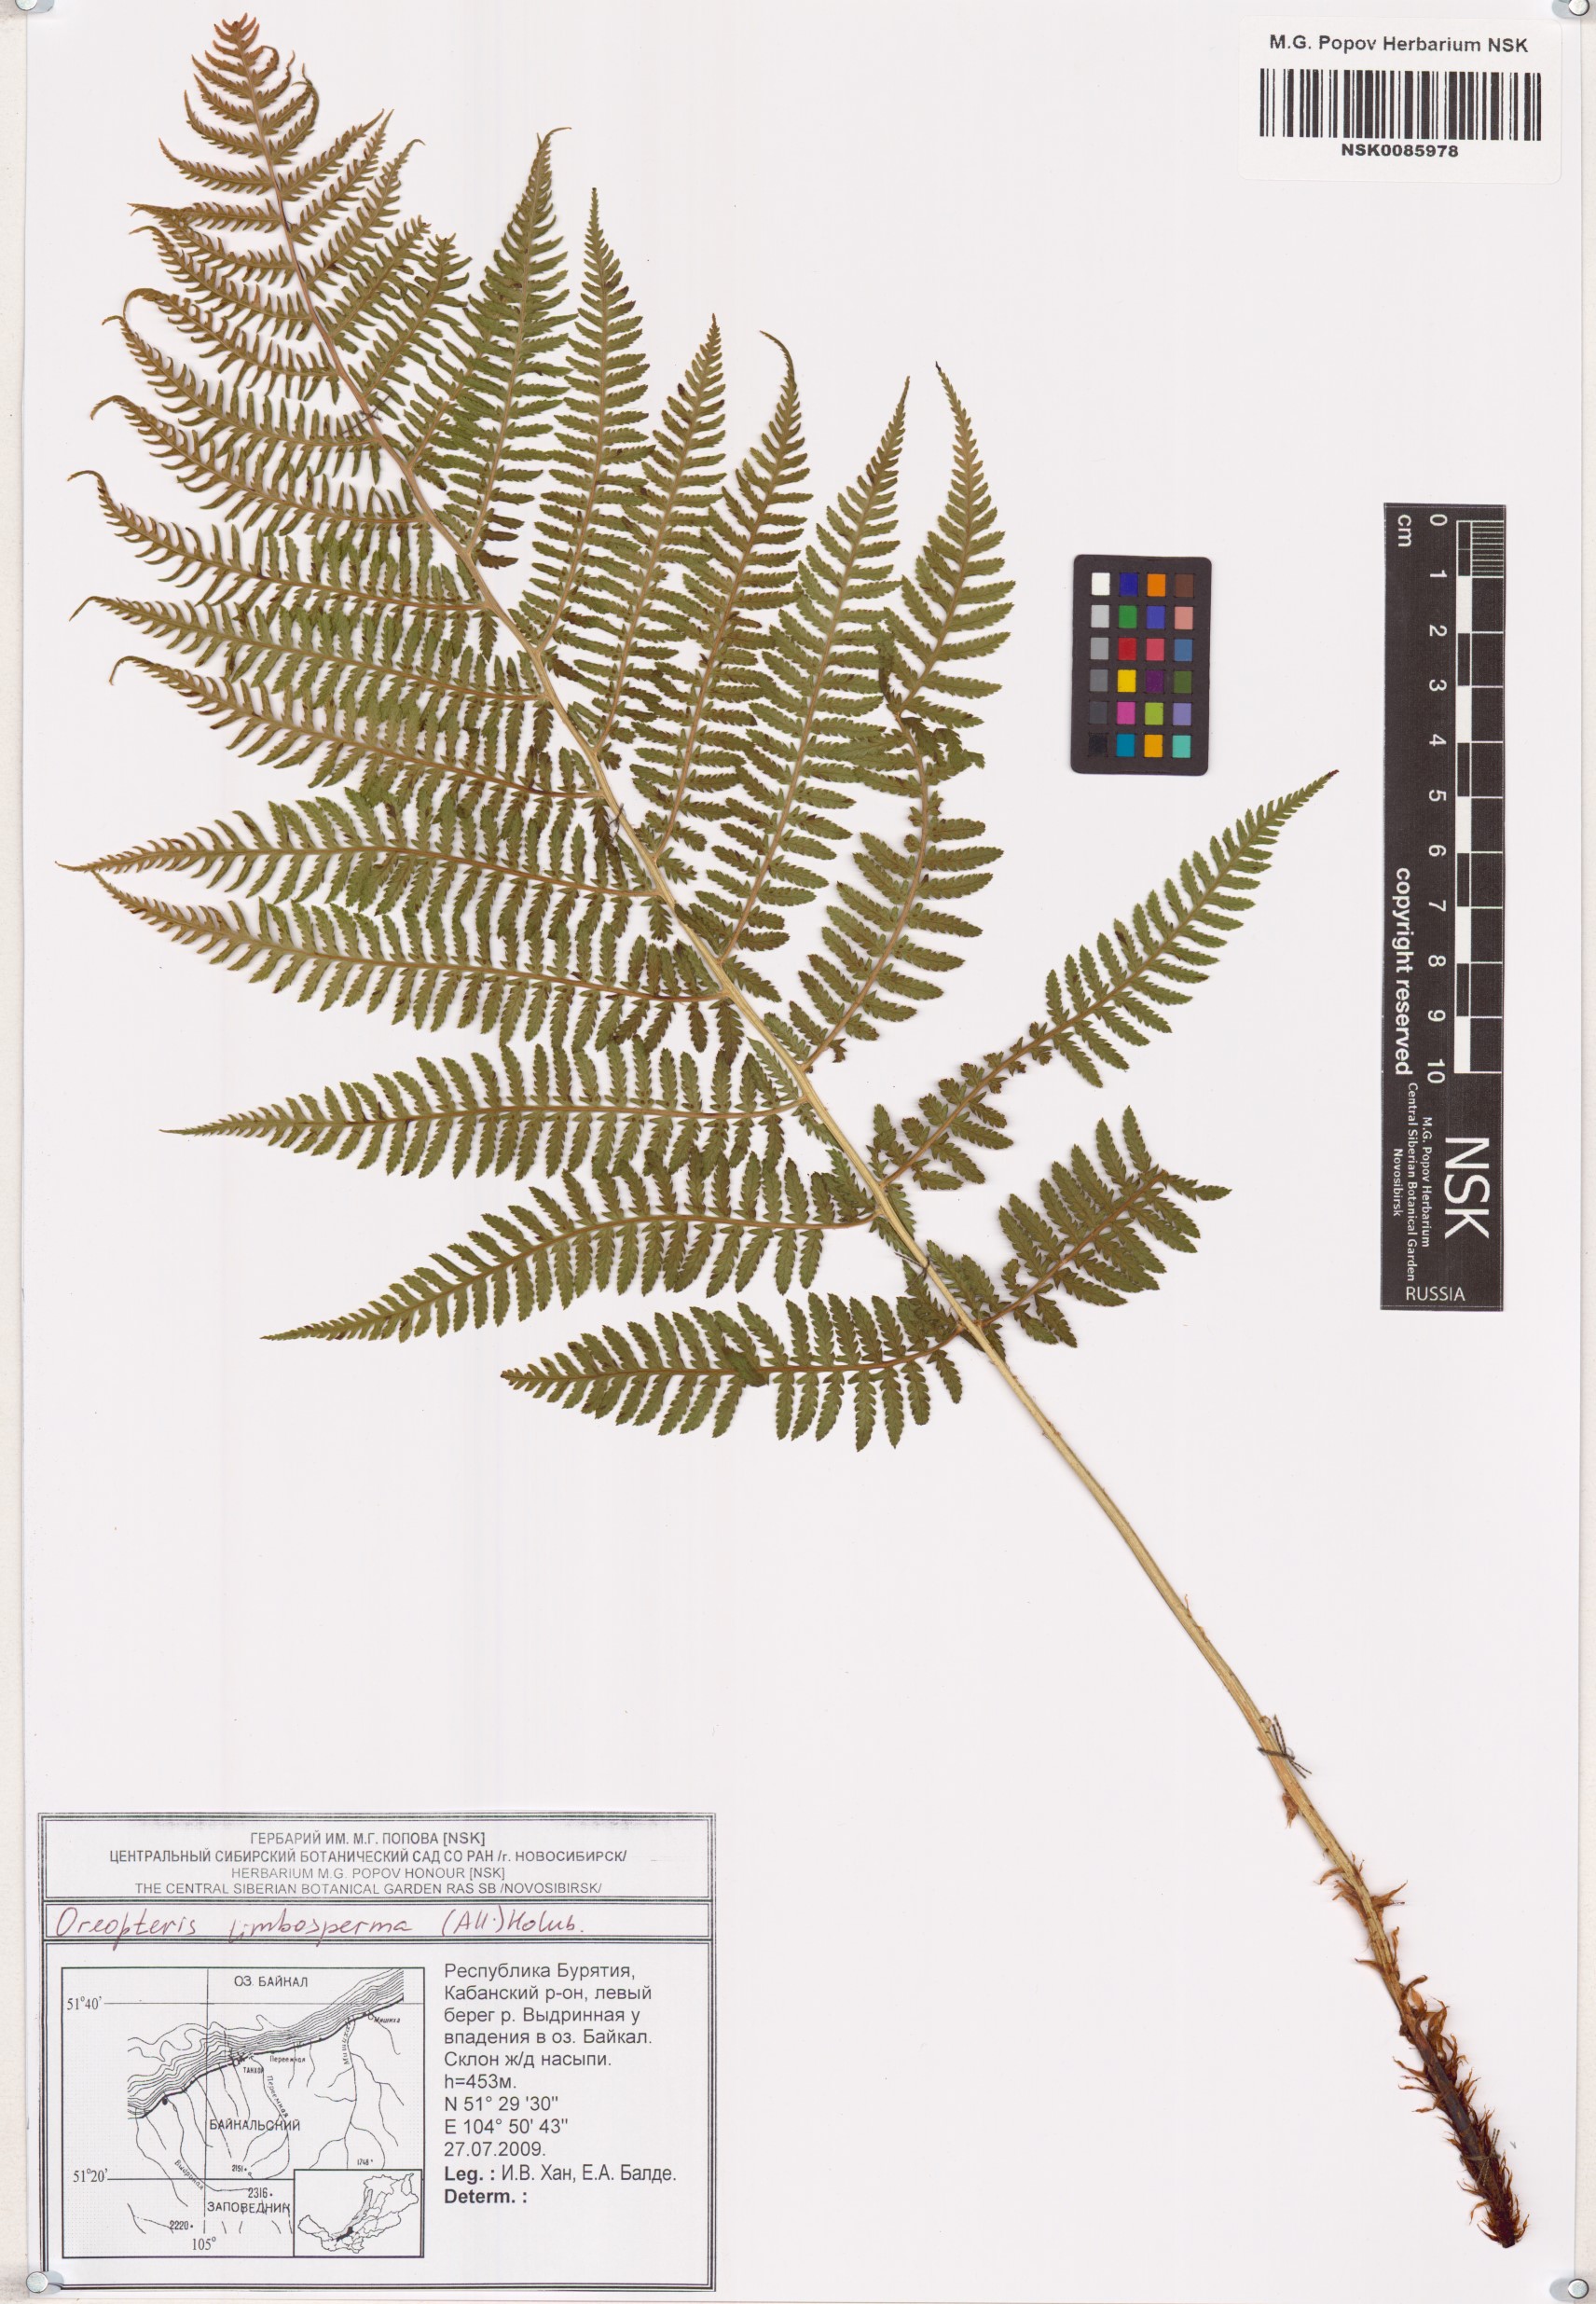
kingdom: Plantae
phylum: Tracheophyta
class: Polypodiopsida
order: Polypodiales
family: Thelypteridaceae
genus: Oreopteris
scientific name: Oreopteris limbosperma
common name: Lemon-scented fern
